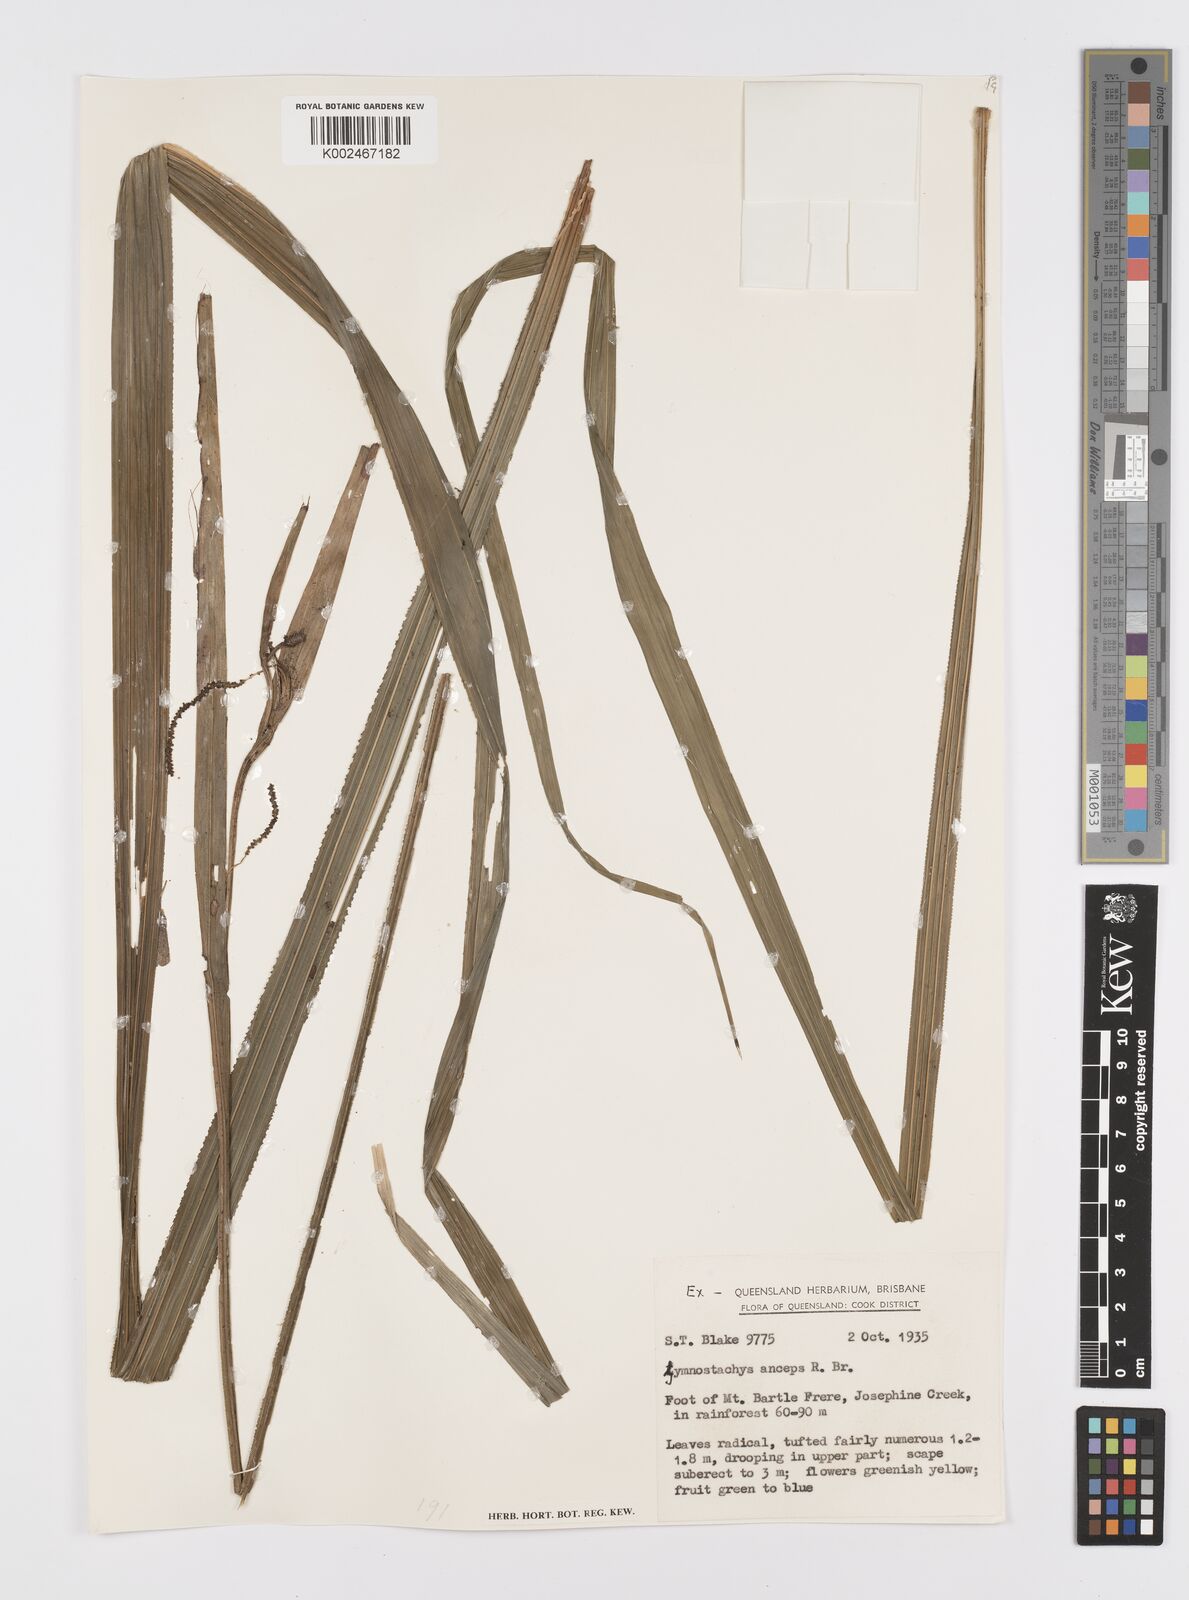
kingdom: Plantae
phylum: Tracheophyta
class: Liliopsida
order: Alismatales
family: Araceae
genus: Gymnostachys
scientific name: Gymnostachys anceps
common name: Settler's-flax
